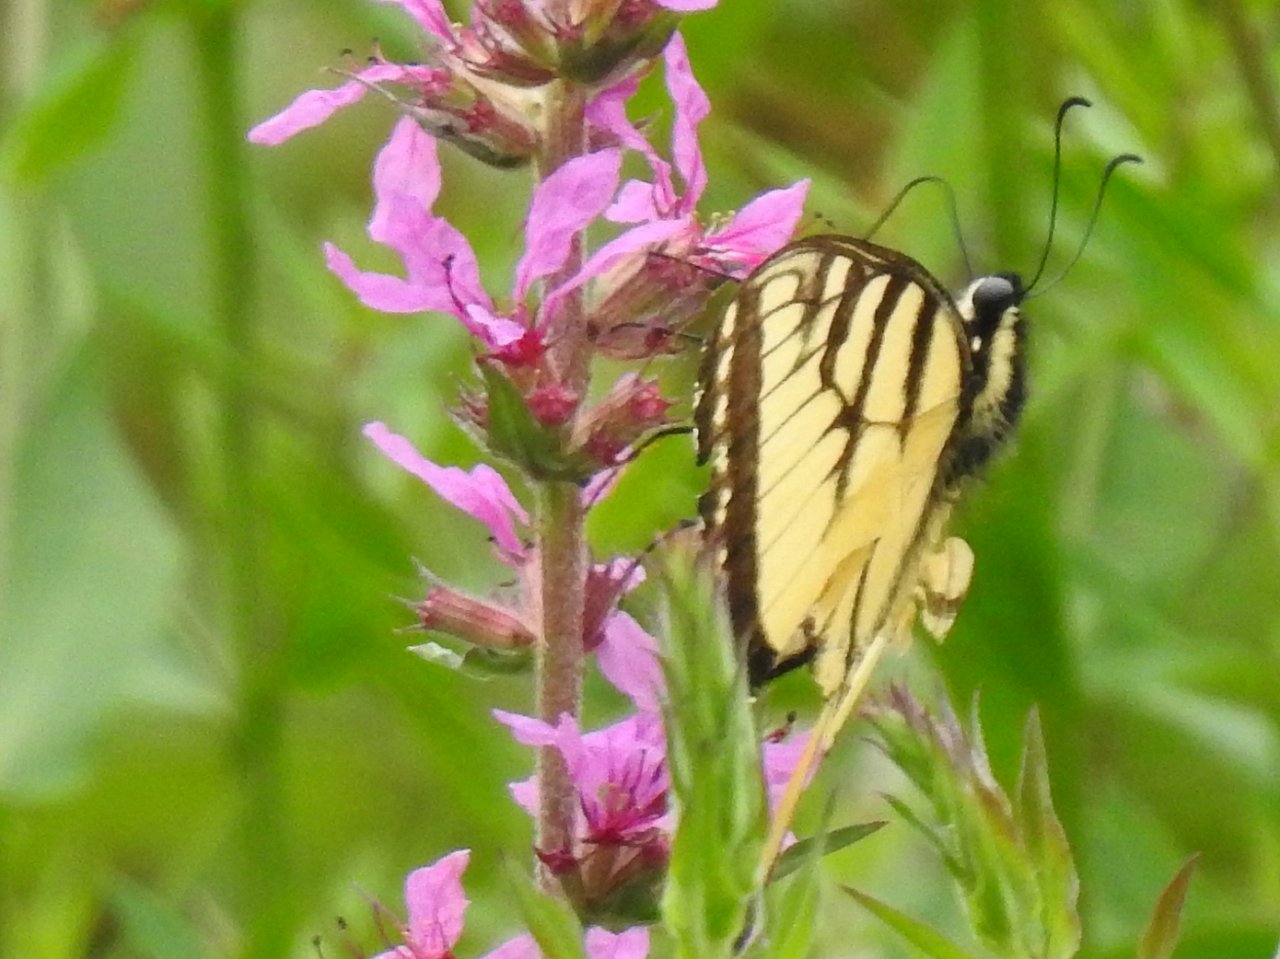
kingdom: Animalia
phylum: Arthropoda
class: Insecta
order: Lepidoptera
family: Papilionidae
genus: Pterourus
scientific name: Pterourus glaucus
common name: Eastern Tiger Swallowtail
